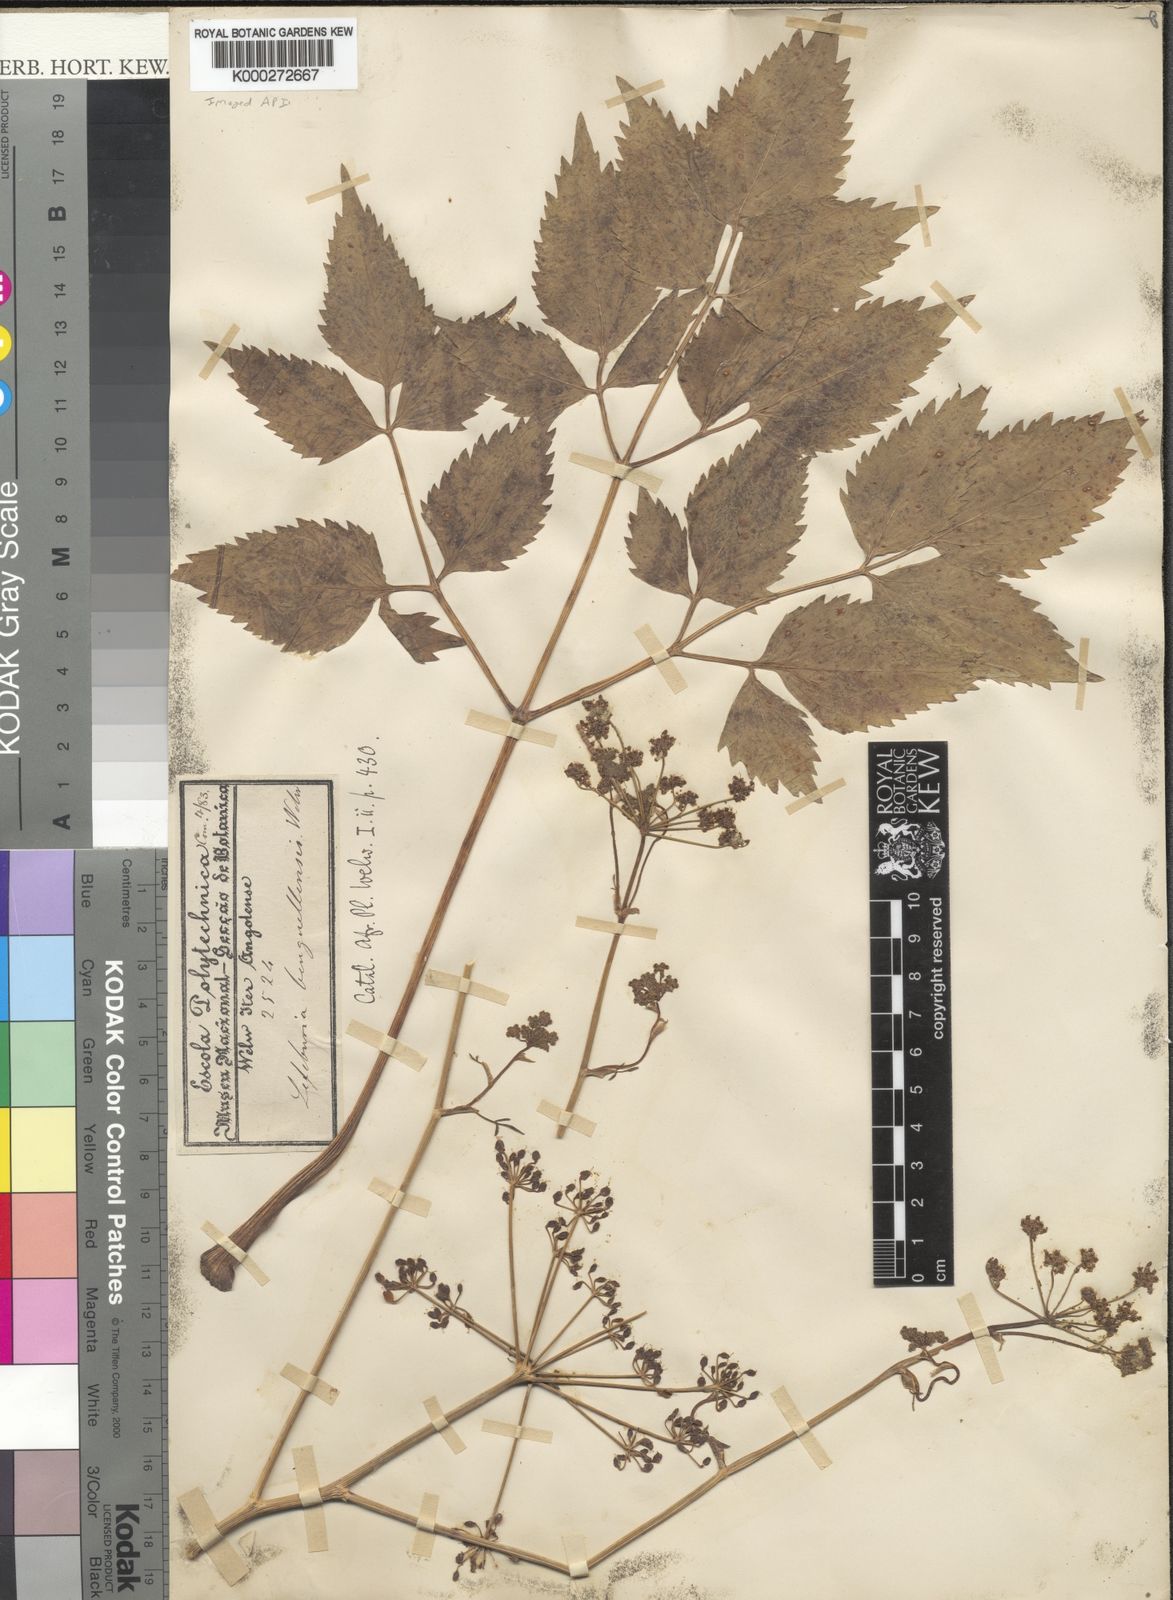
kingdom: Plantae
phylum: Tracheophyta
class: Magnoliopsida
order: Apiales
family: Apiaceae
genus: Lefebvrea
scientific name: Lefebvrea
